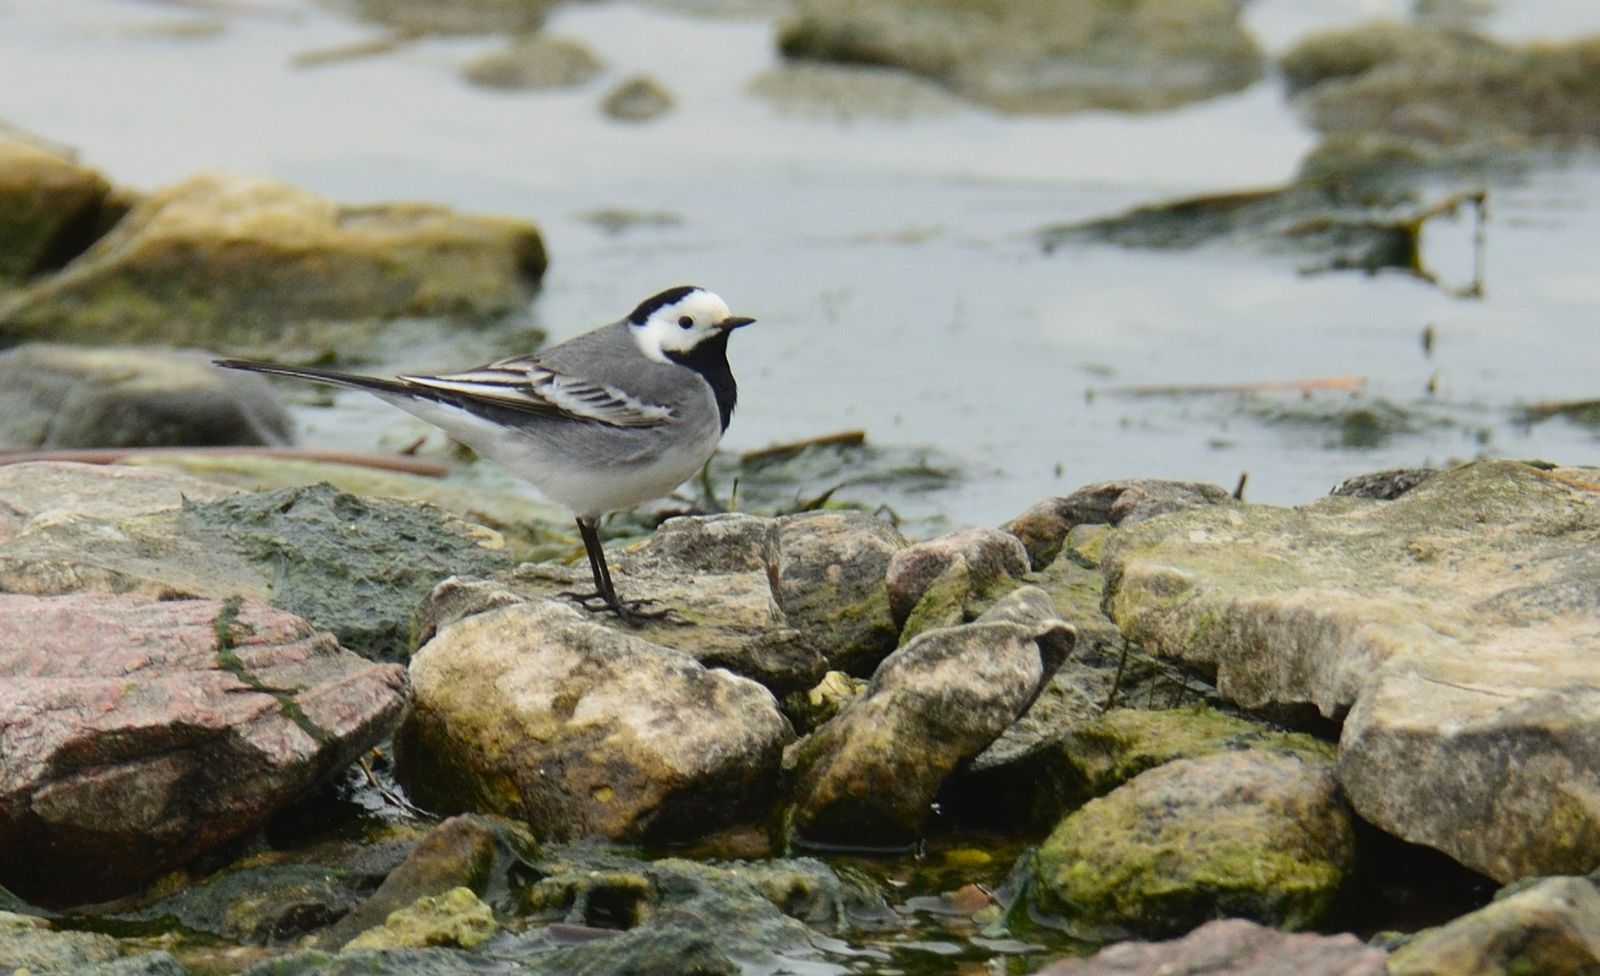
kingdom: Animalia
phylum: Chordata
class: Aves
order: Passeriformes
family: Motacillidae
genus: Motacilla
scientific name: Motacilla alba
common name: White wagtail
